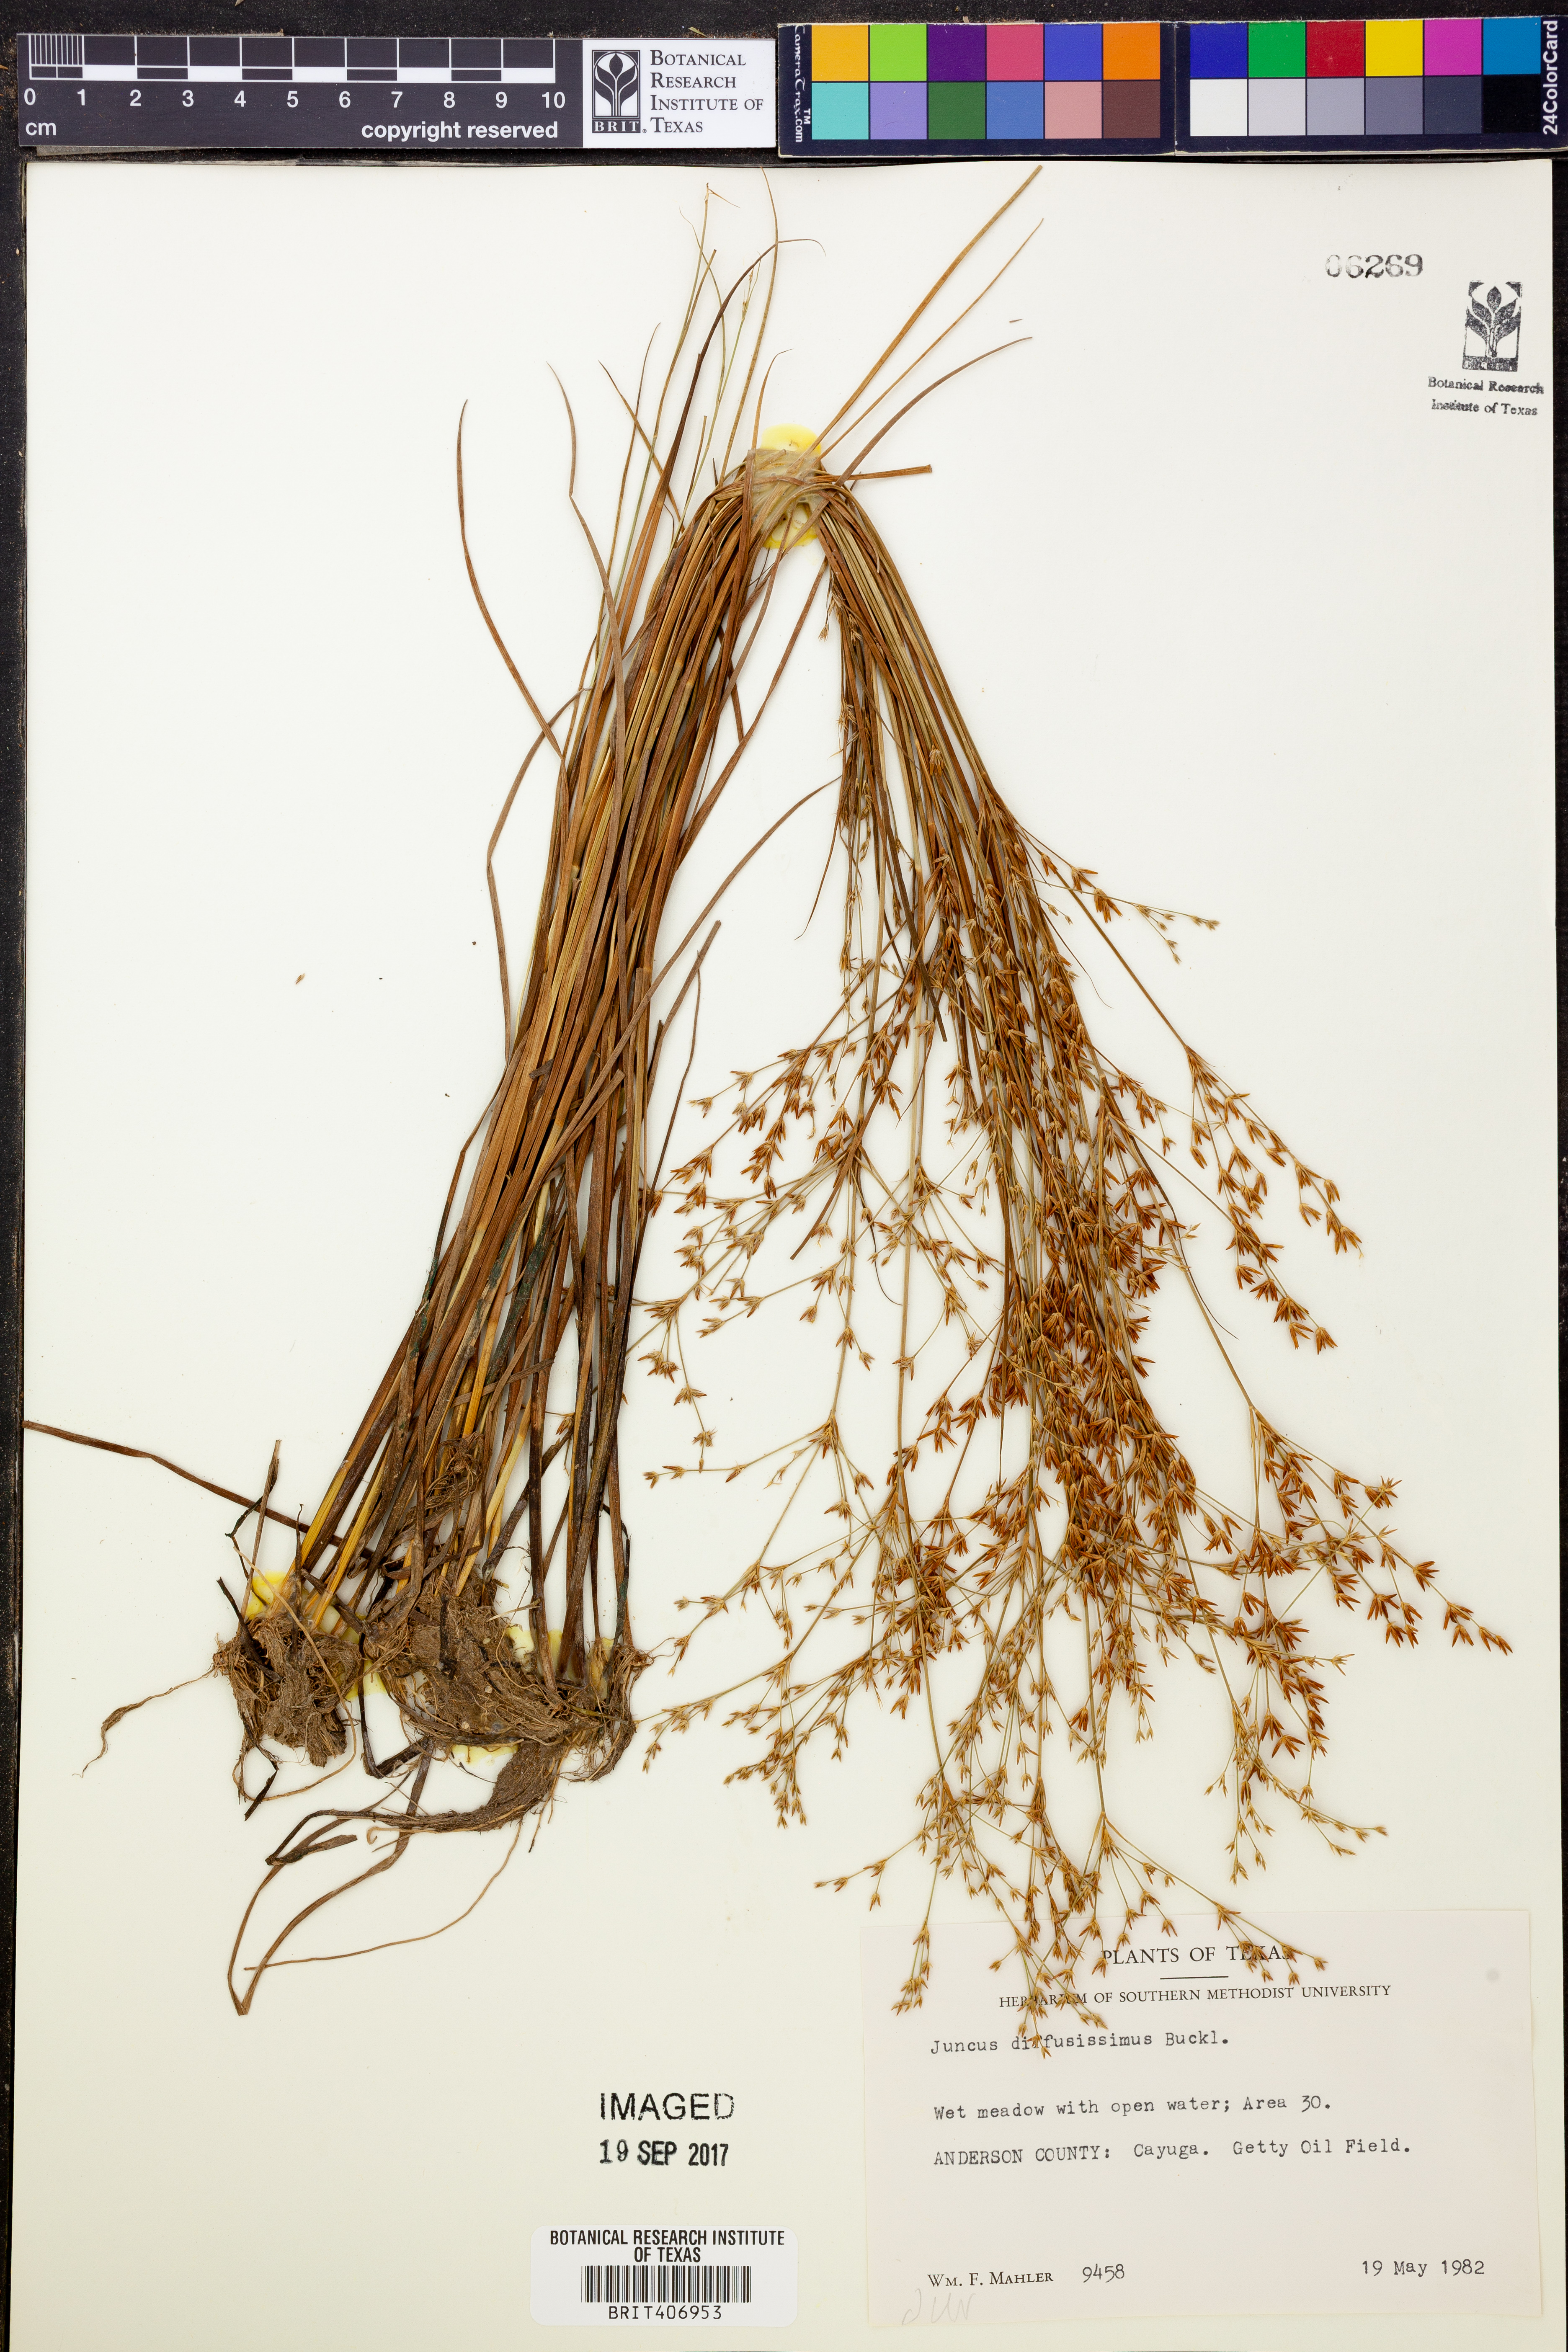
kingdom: Plantae
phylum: Tracheophyta
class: Liliopsida
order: Poales
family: Juncaceae
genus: Juncus
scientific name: Juncus diffusissimus
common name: Slimpod rush
